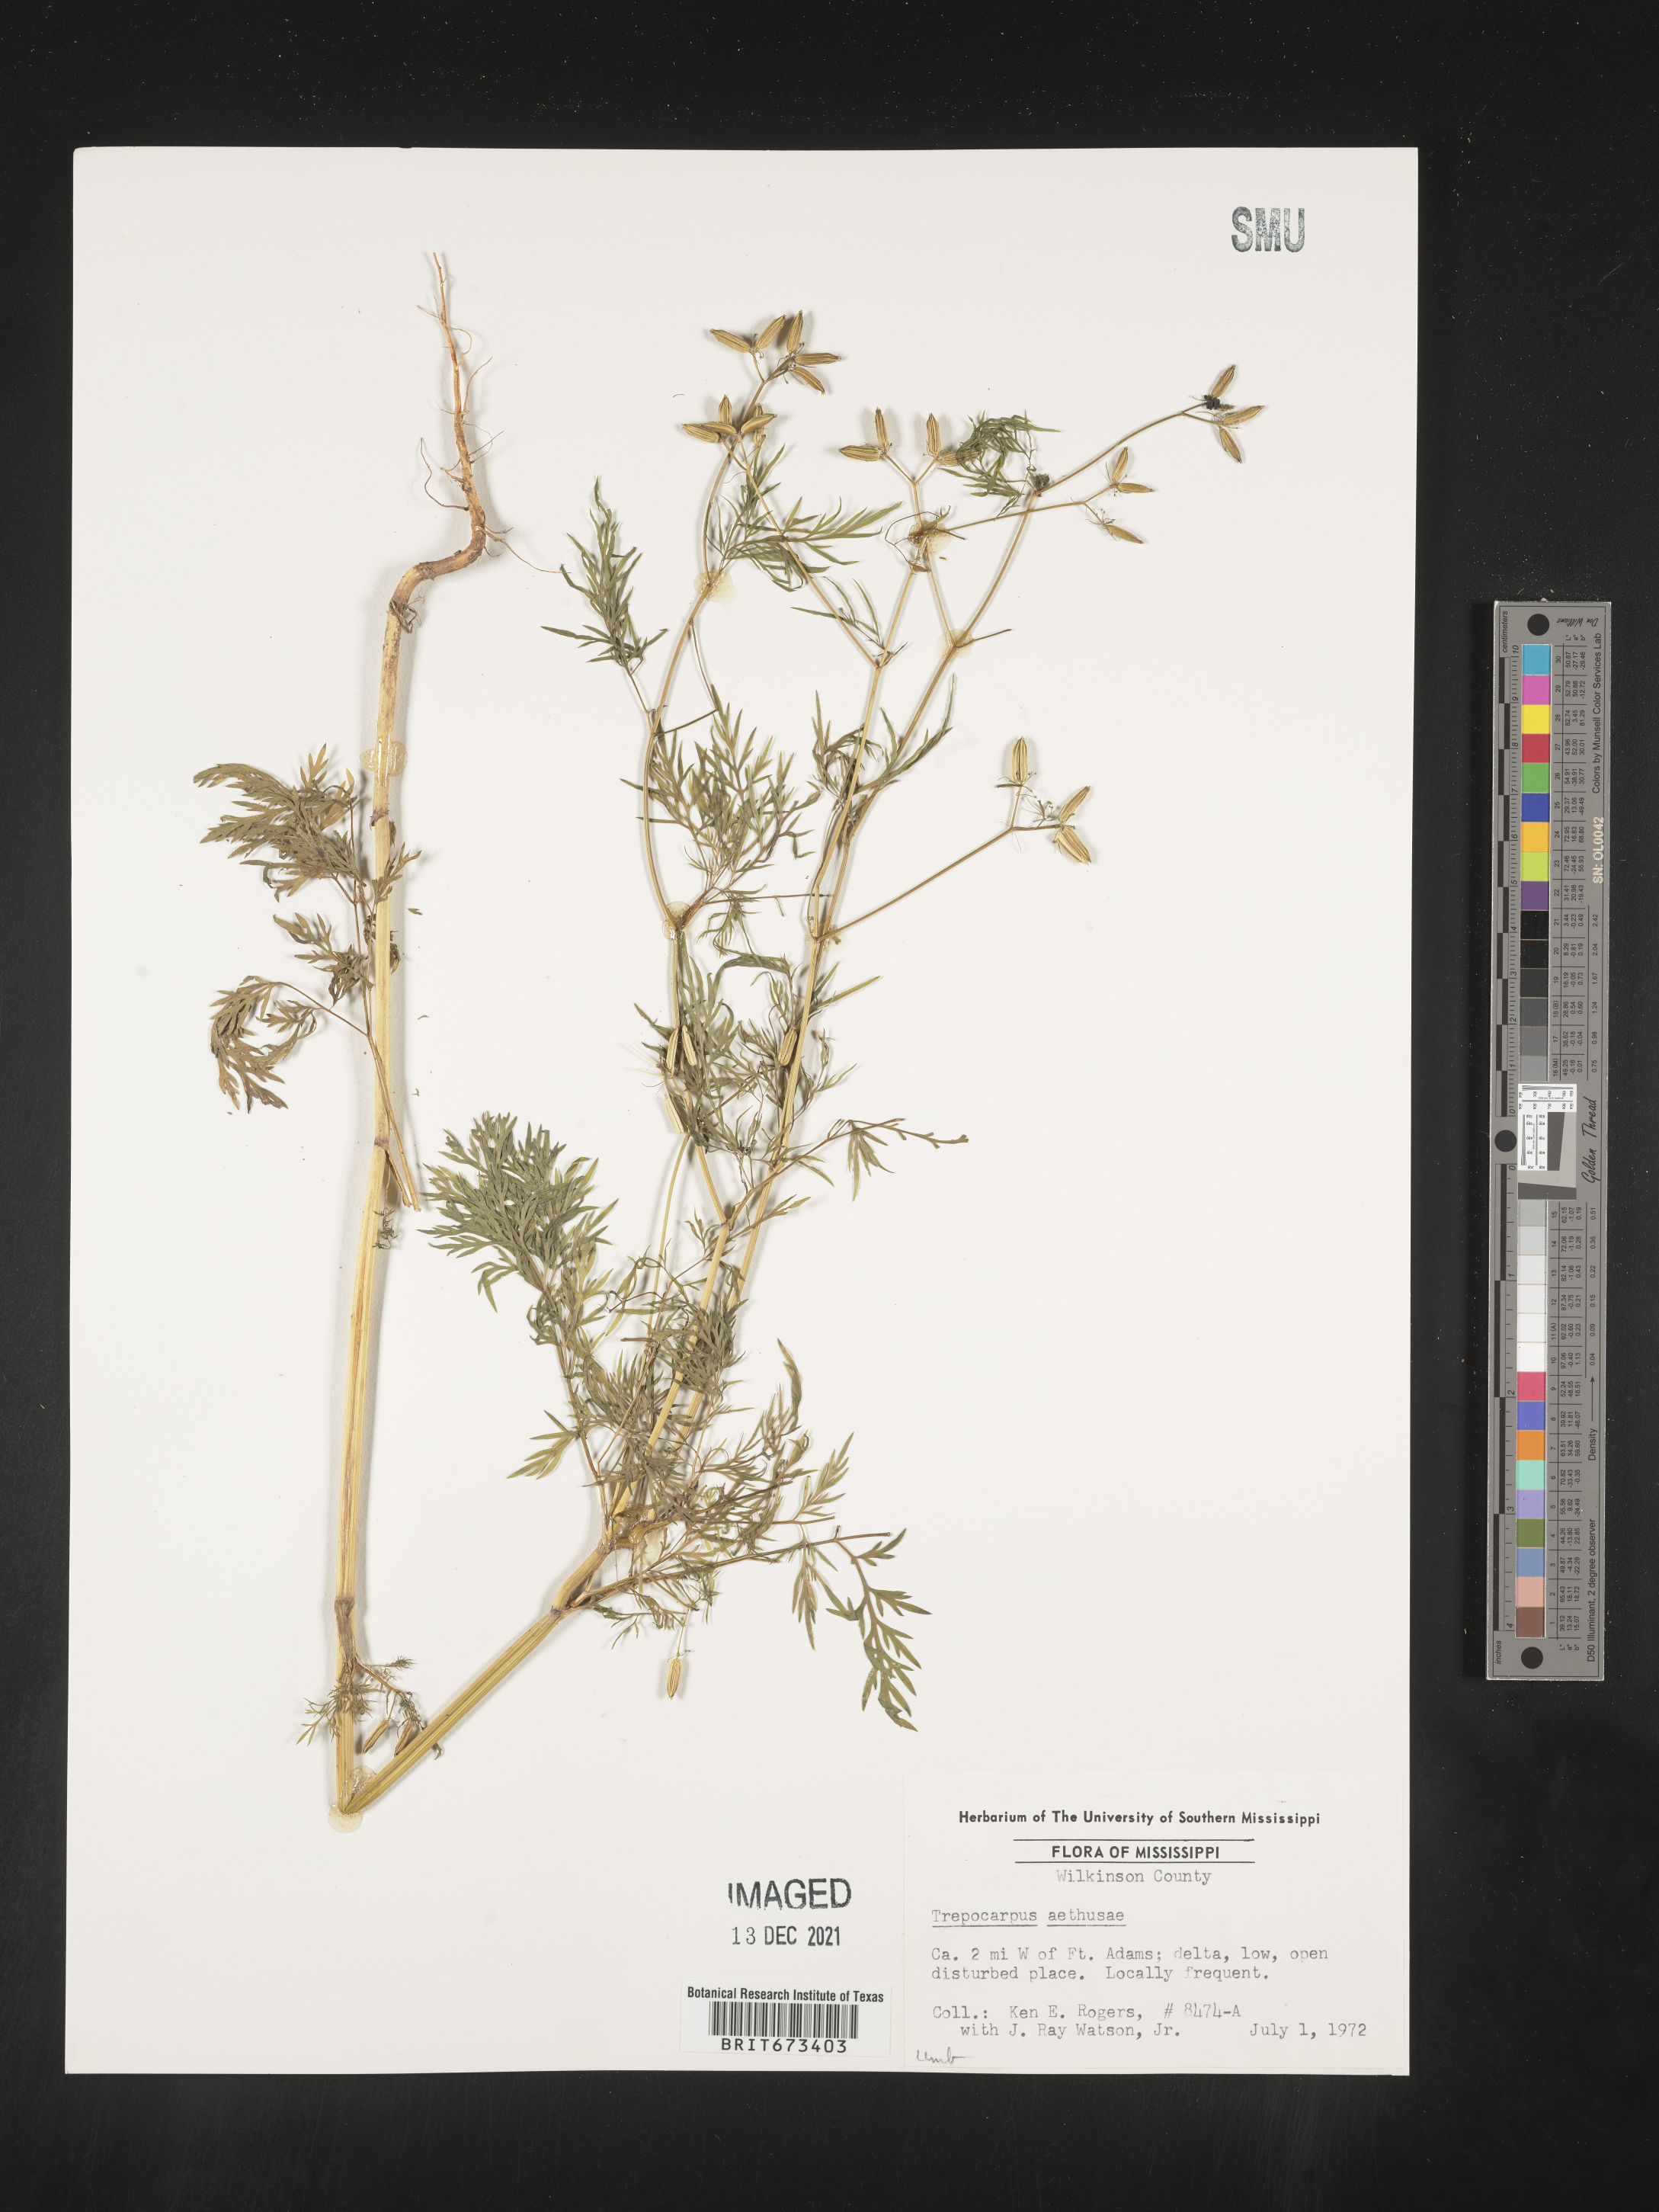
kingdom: Plantae
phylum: Tracheophyta
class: Magnoliopsida
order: Apiales
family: Apiaceae
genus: Trepocarpus
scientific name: Trepocarpus aethusae
